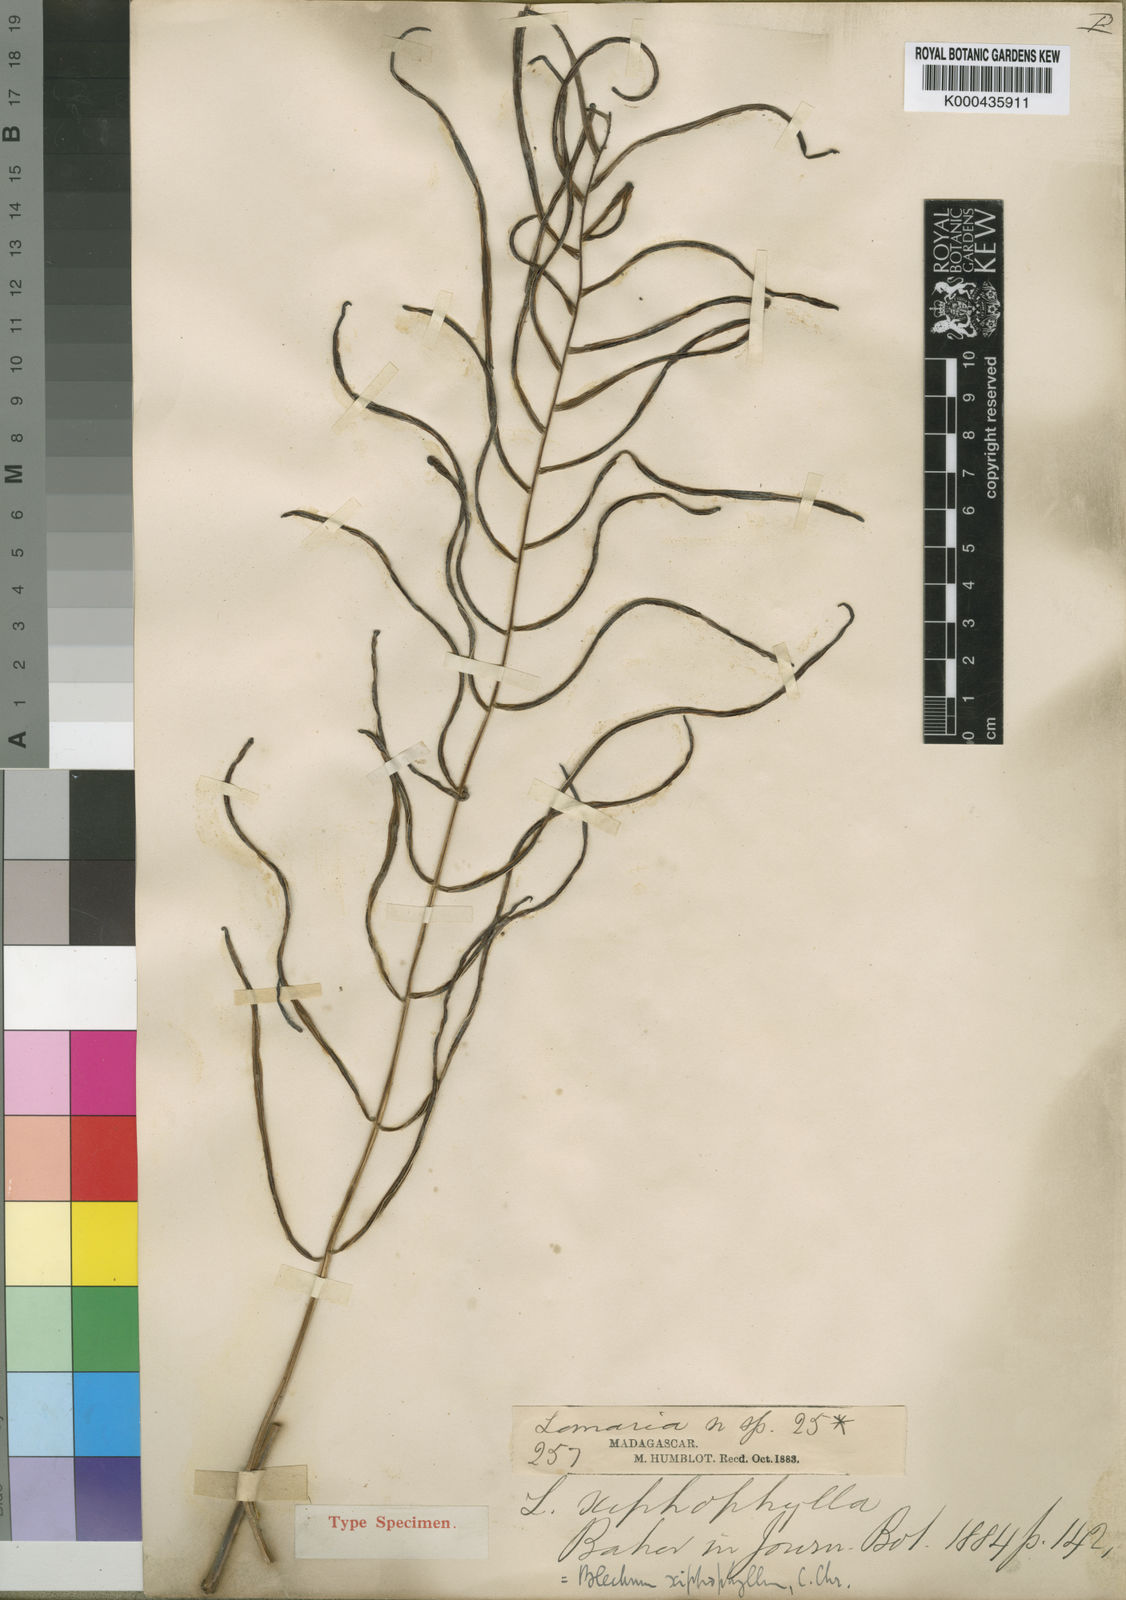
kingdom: Plantae
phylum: Tracheophyta
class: Polypodiopsida
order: Polypodiales
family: Blechnaceae
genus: Lomaridium
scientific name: Lomaridium simillimum
